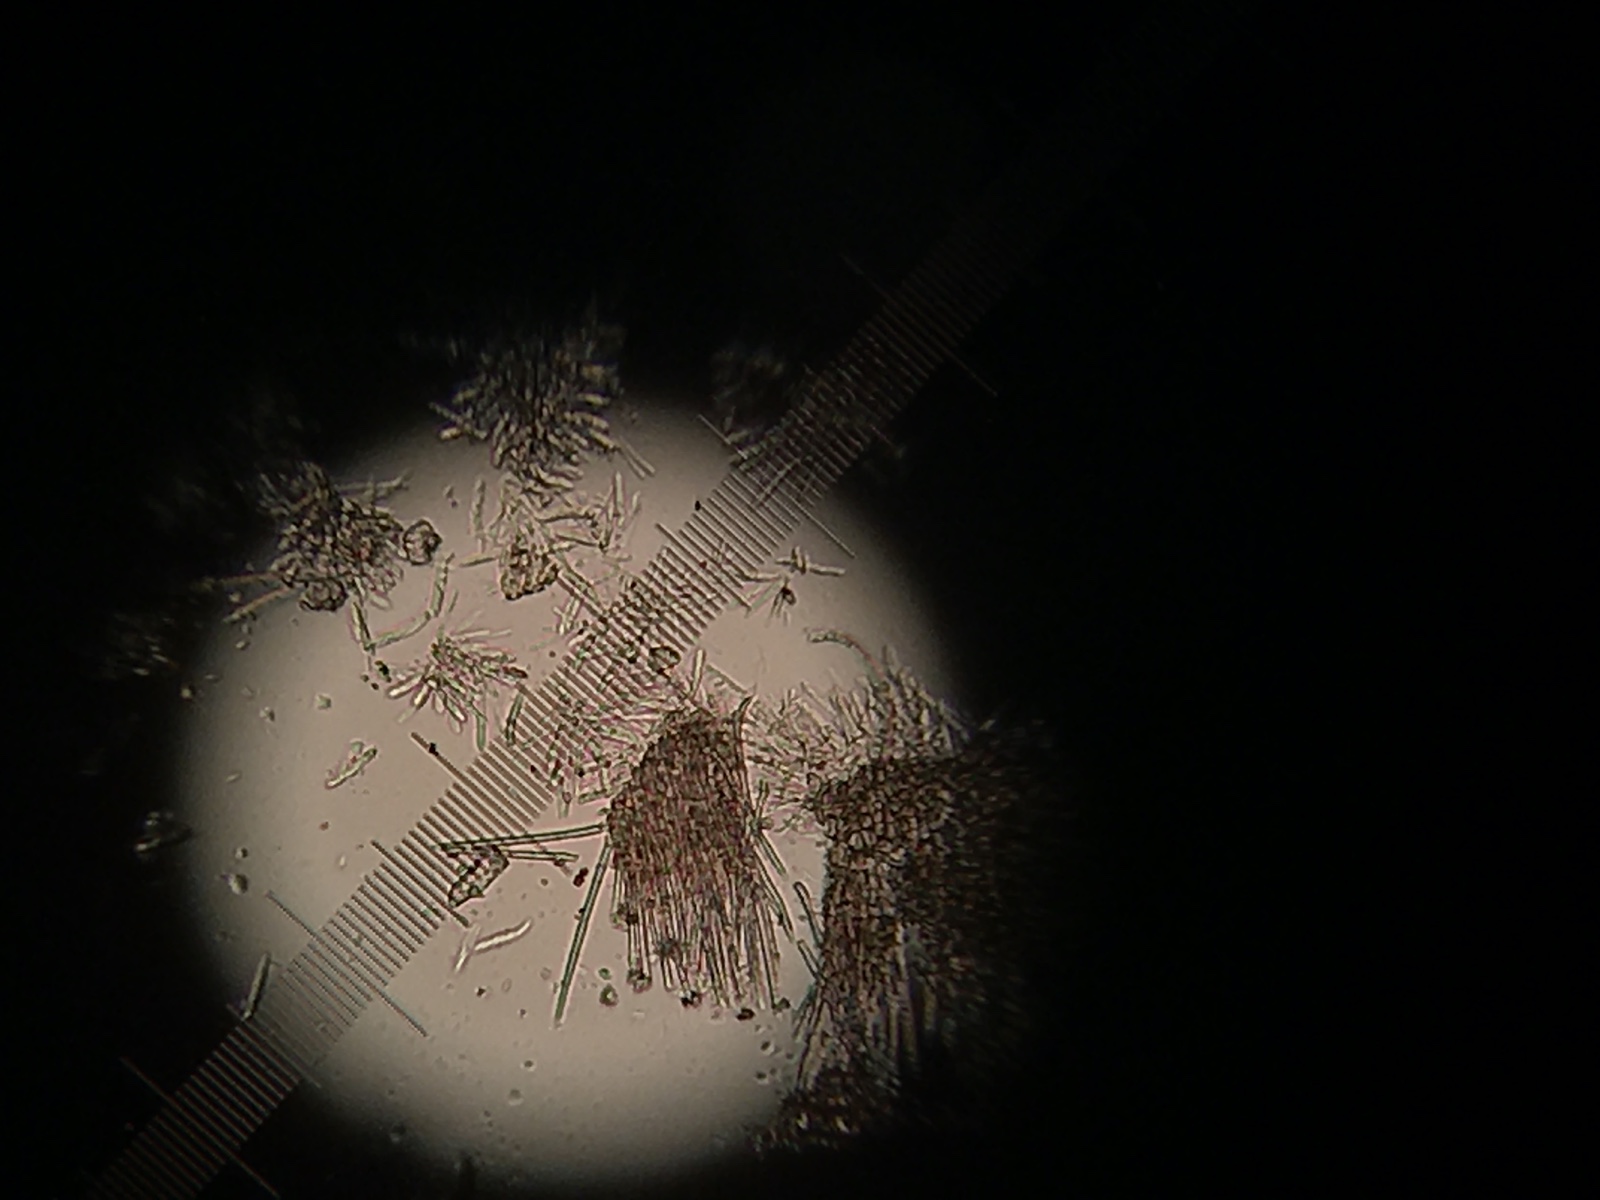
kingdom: Fungi
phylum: Ascomycota
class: Leotiomycetes
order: Helotiales
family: Hyaloscyphaceae
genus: Urceolella
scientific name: Urceolella corticicola
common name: pors-kugleskive
